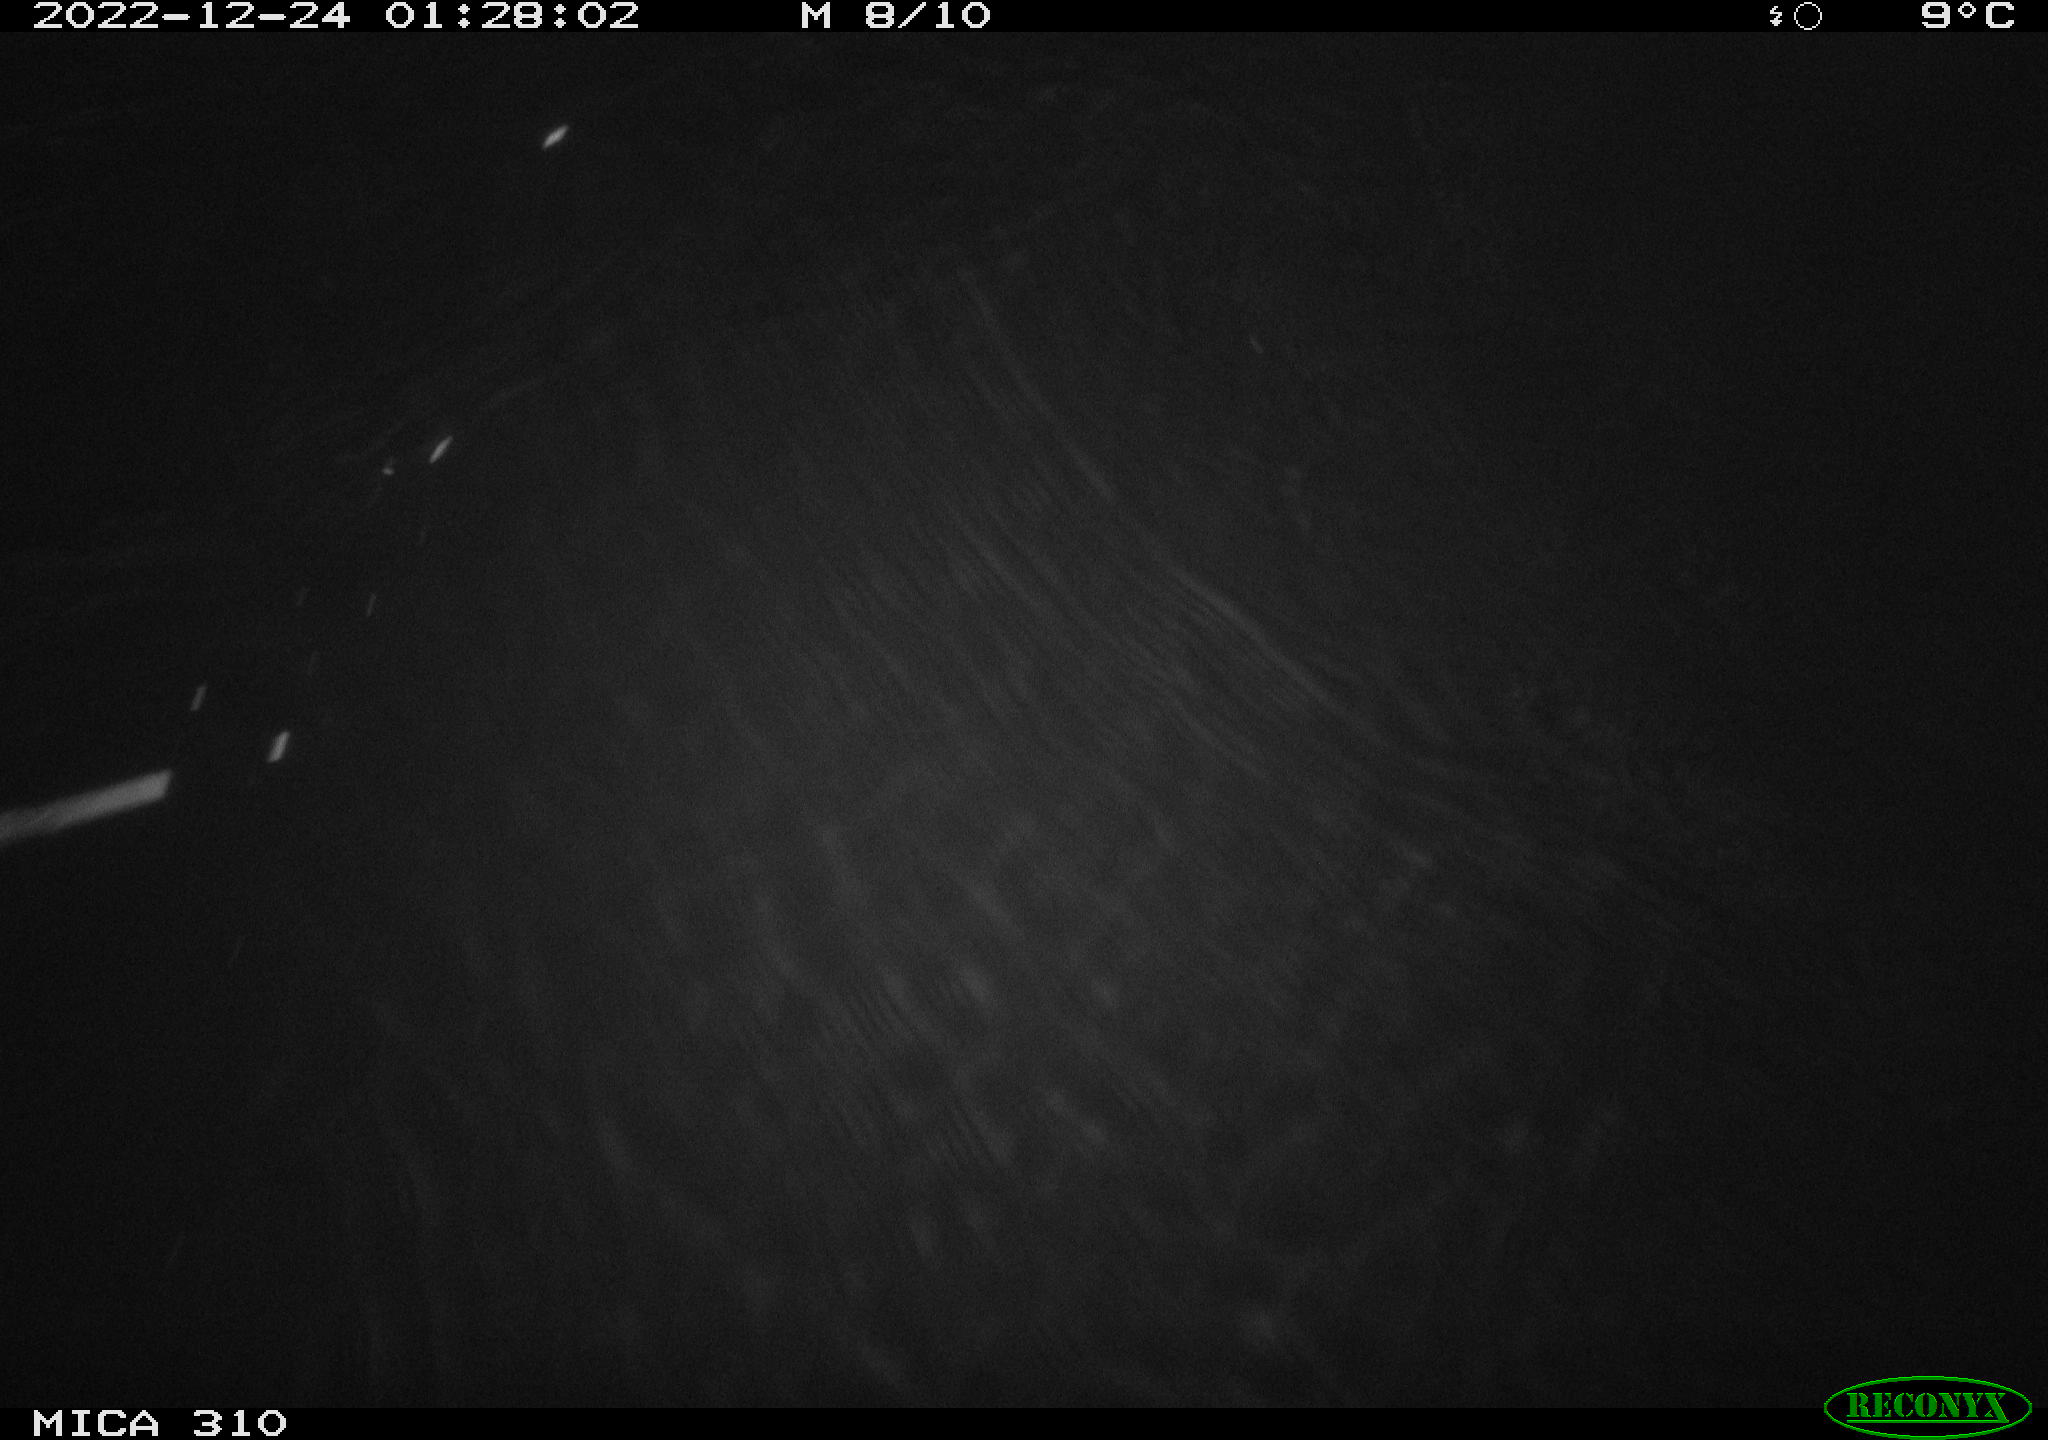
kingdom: Animalia
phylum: Chordata
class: Mammalia
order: Rodentia
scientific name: Rodentia
